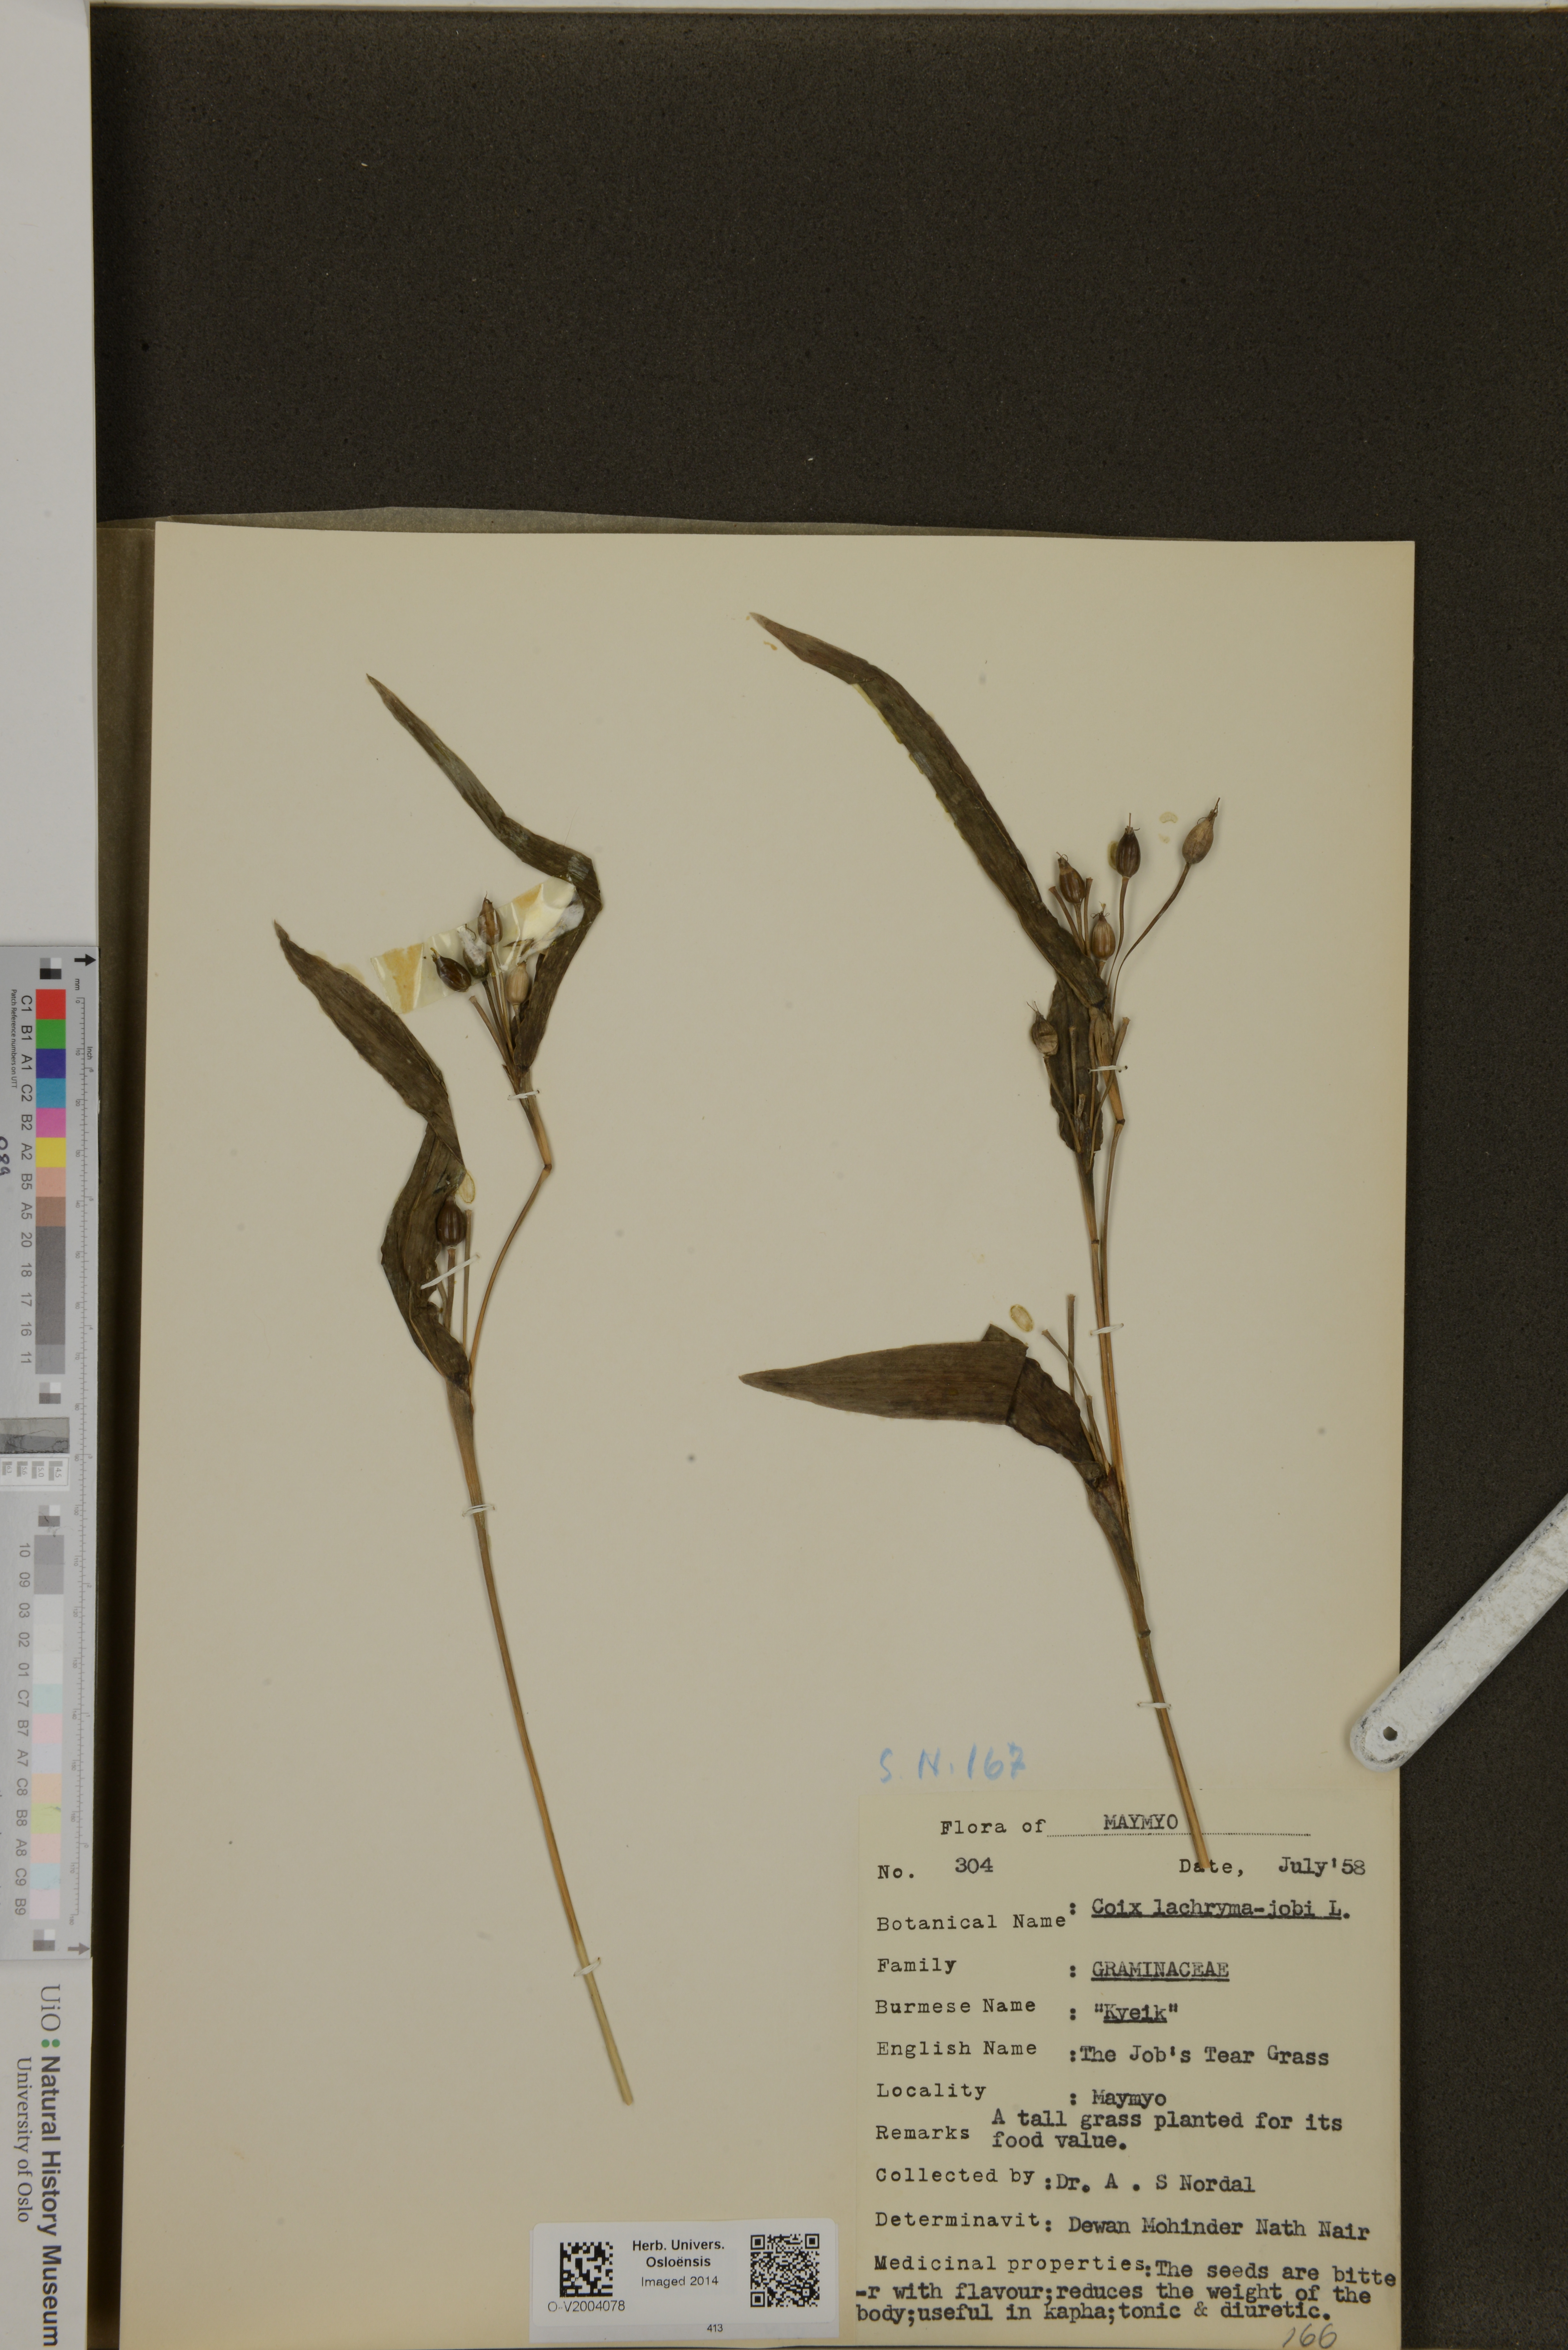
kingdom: Plantae
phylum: Tracheophyta
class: Liliopsida
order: Poales
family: Poaceae
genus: Coix
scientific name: Coix lacryma-jobi
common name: Job's tears
